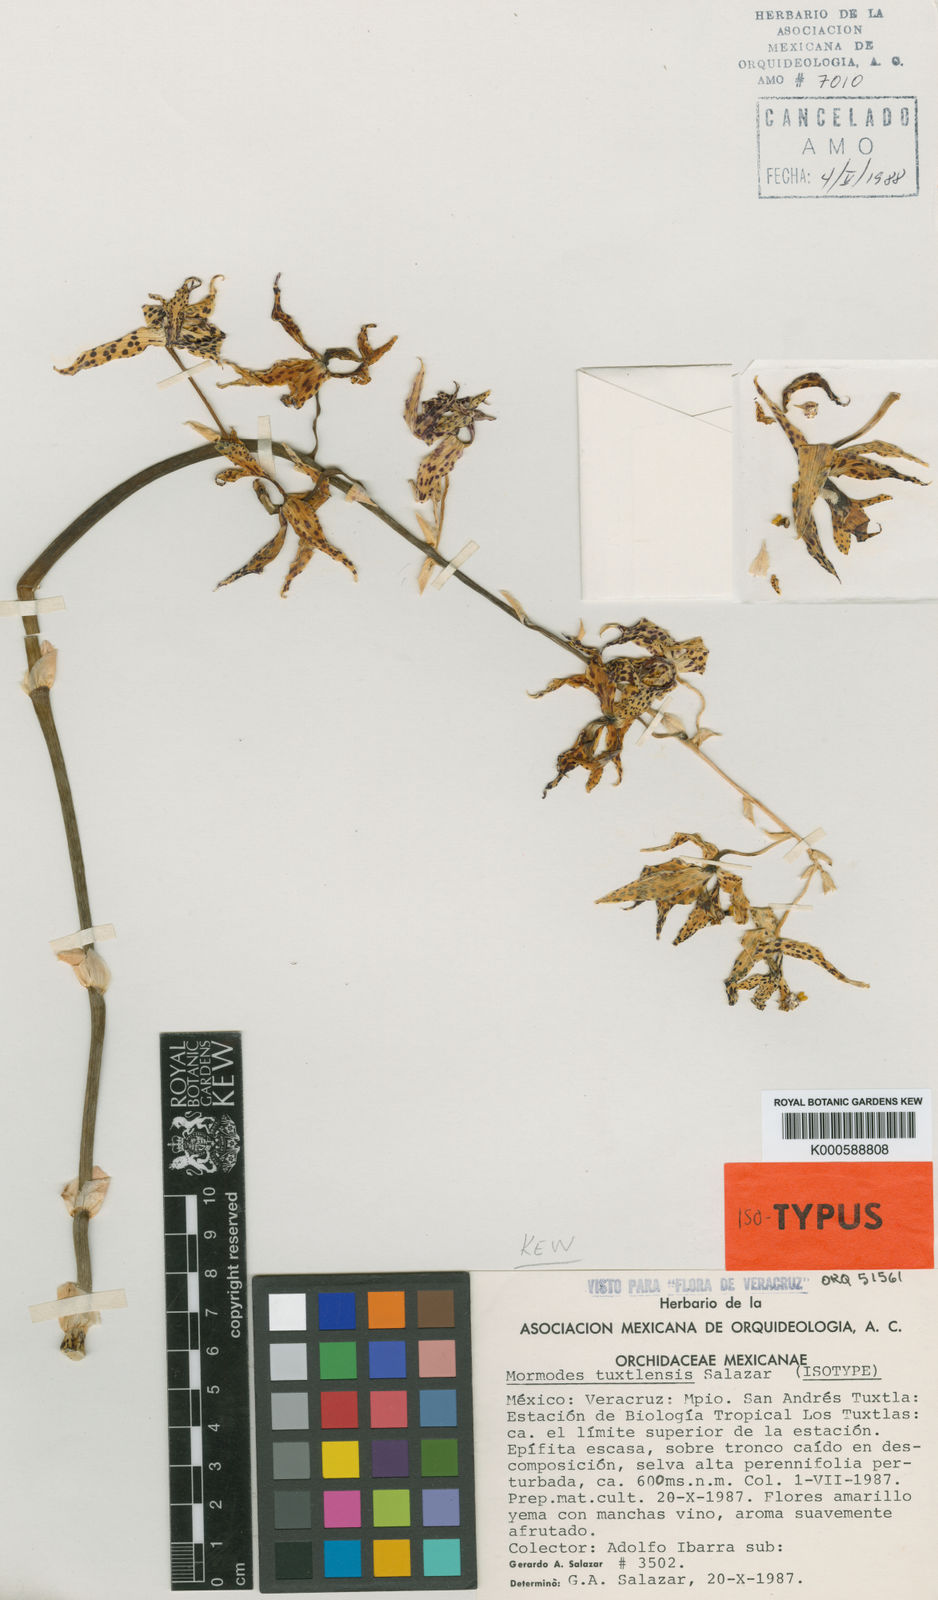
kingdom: Plantae
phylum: Tracheophyta
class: Liliopsida
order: Asparagales
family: Orchidaceae
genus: Mormodes
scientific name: Mormodes tuxtlensis
